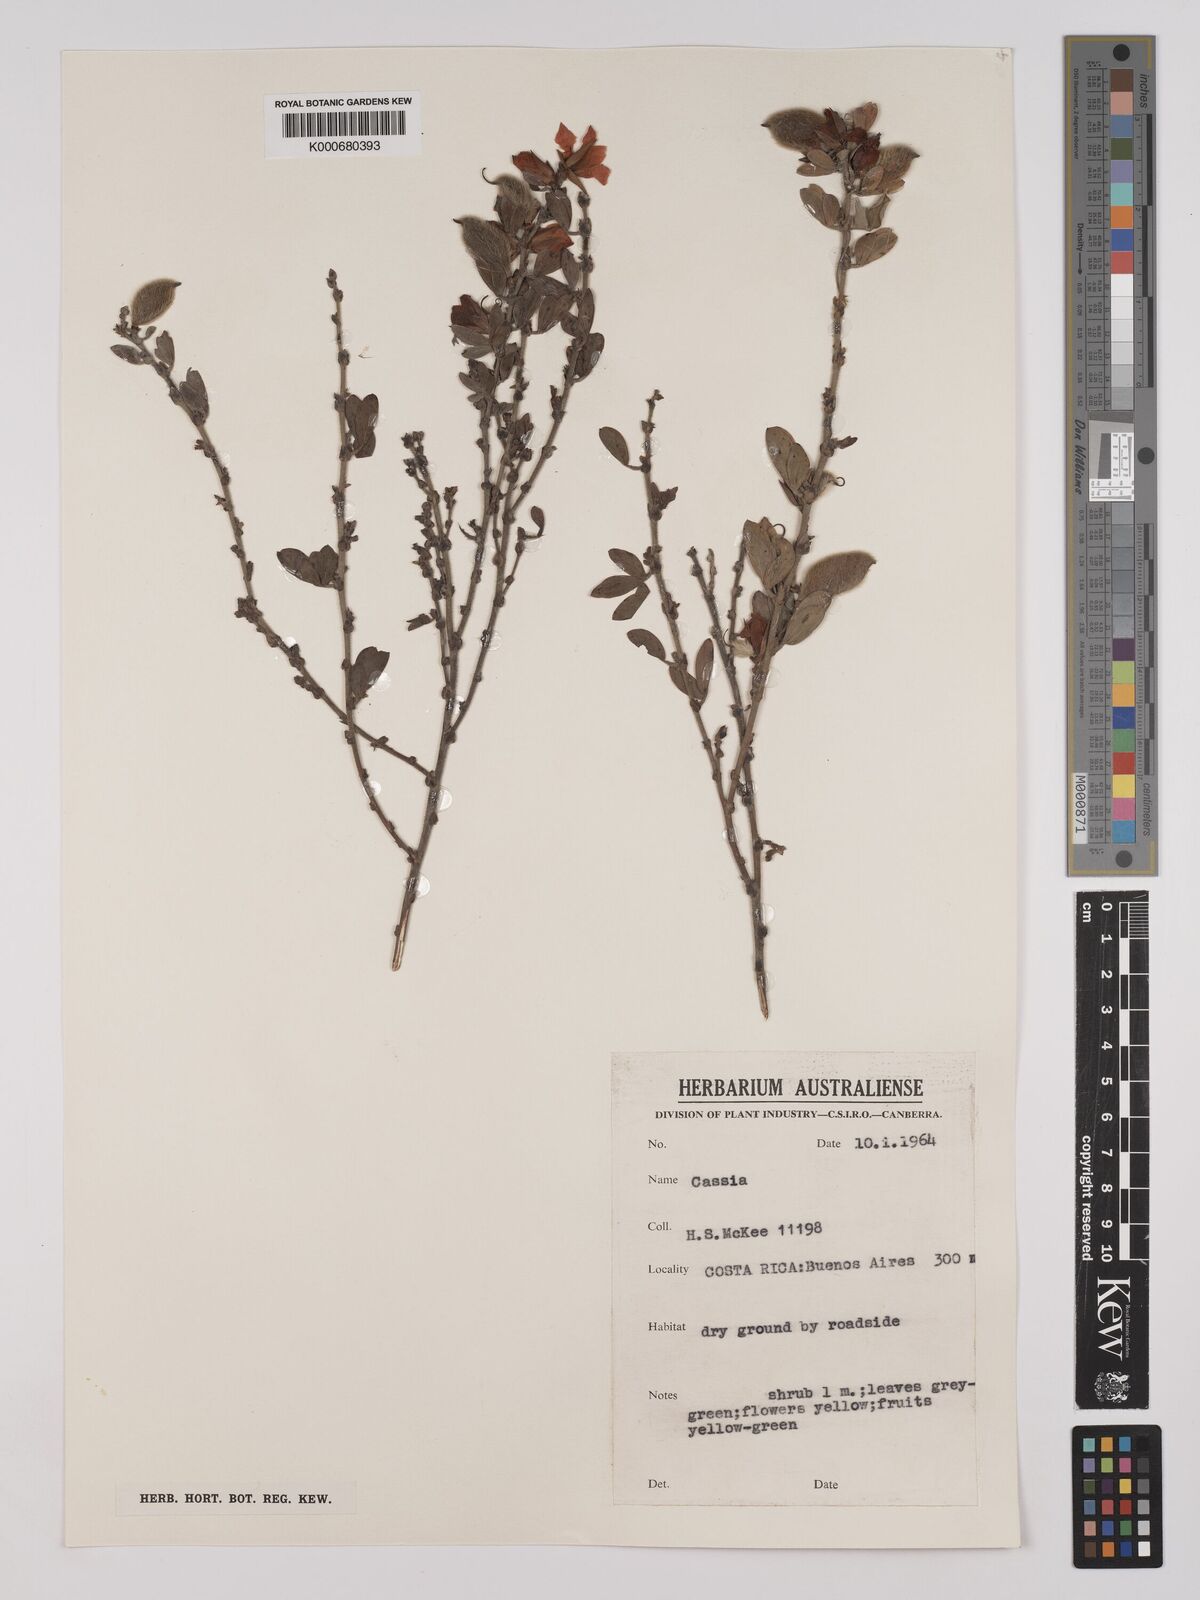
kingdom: Plantae
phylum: Tracheophyta
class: Magnoliopsida
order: Fabales
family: Fabaceae
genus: Chamaecrista
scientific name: Chamaecrista desvauxii
